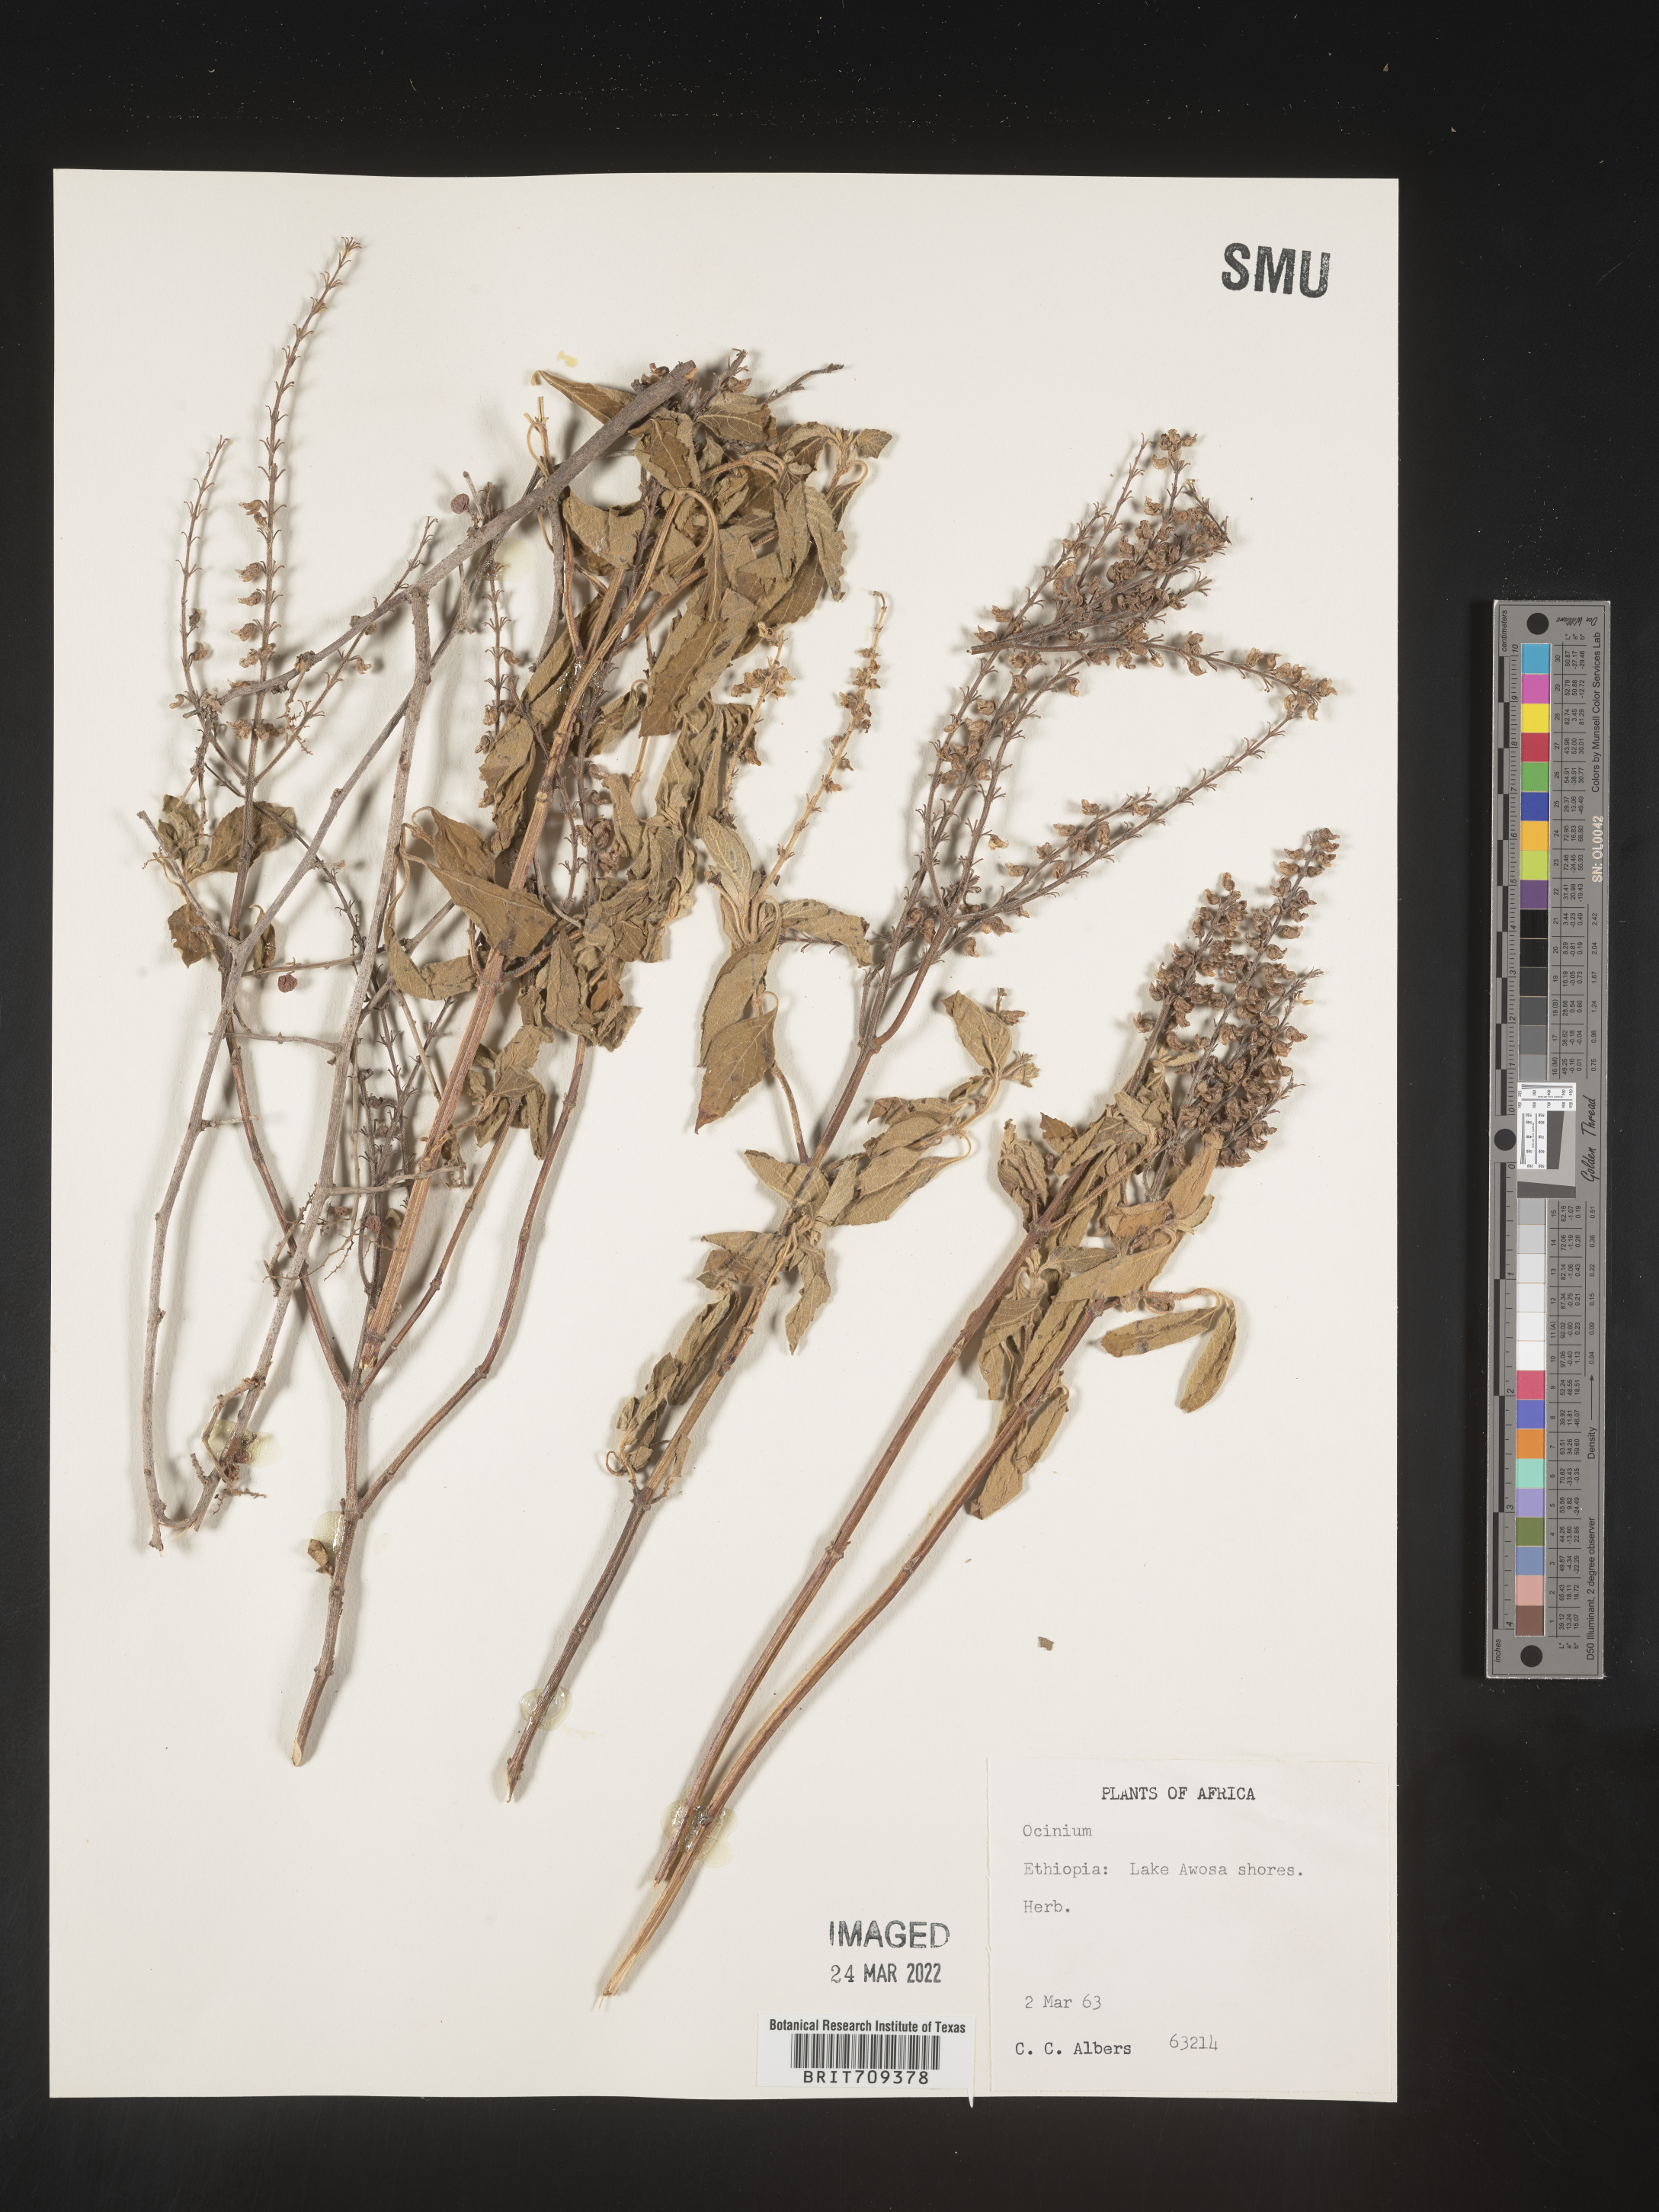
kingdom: Plantae
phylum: Tracheophyta
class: Magnoliopsida
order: Lamiales
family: Lamiaceae
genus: Ocimum
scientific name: Ocimum
